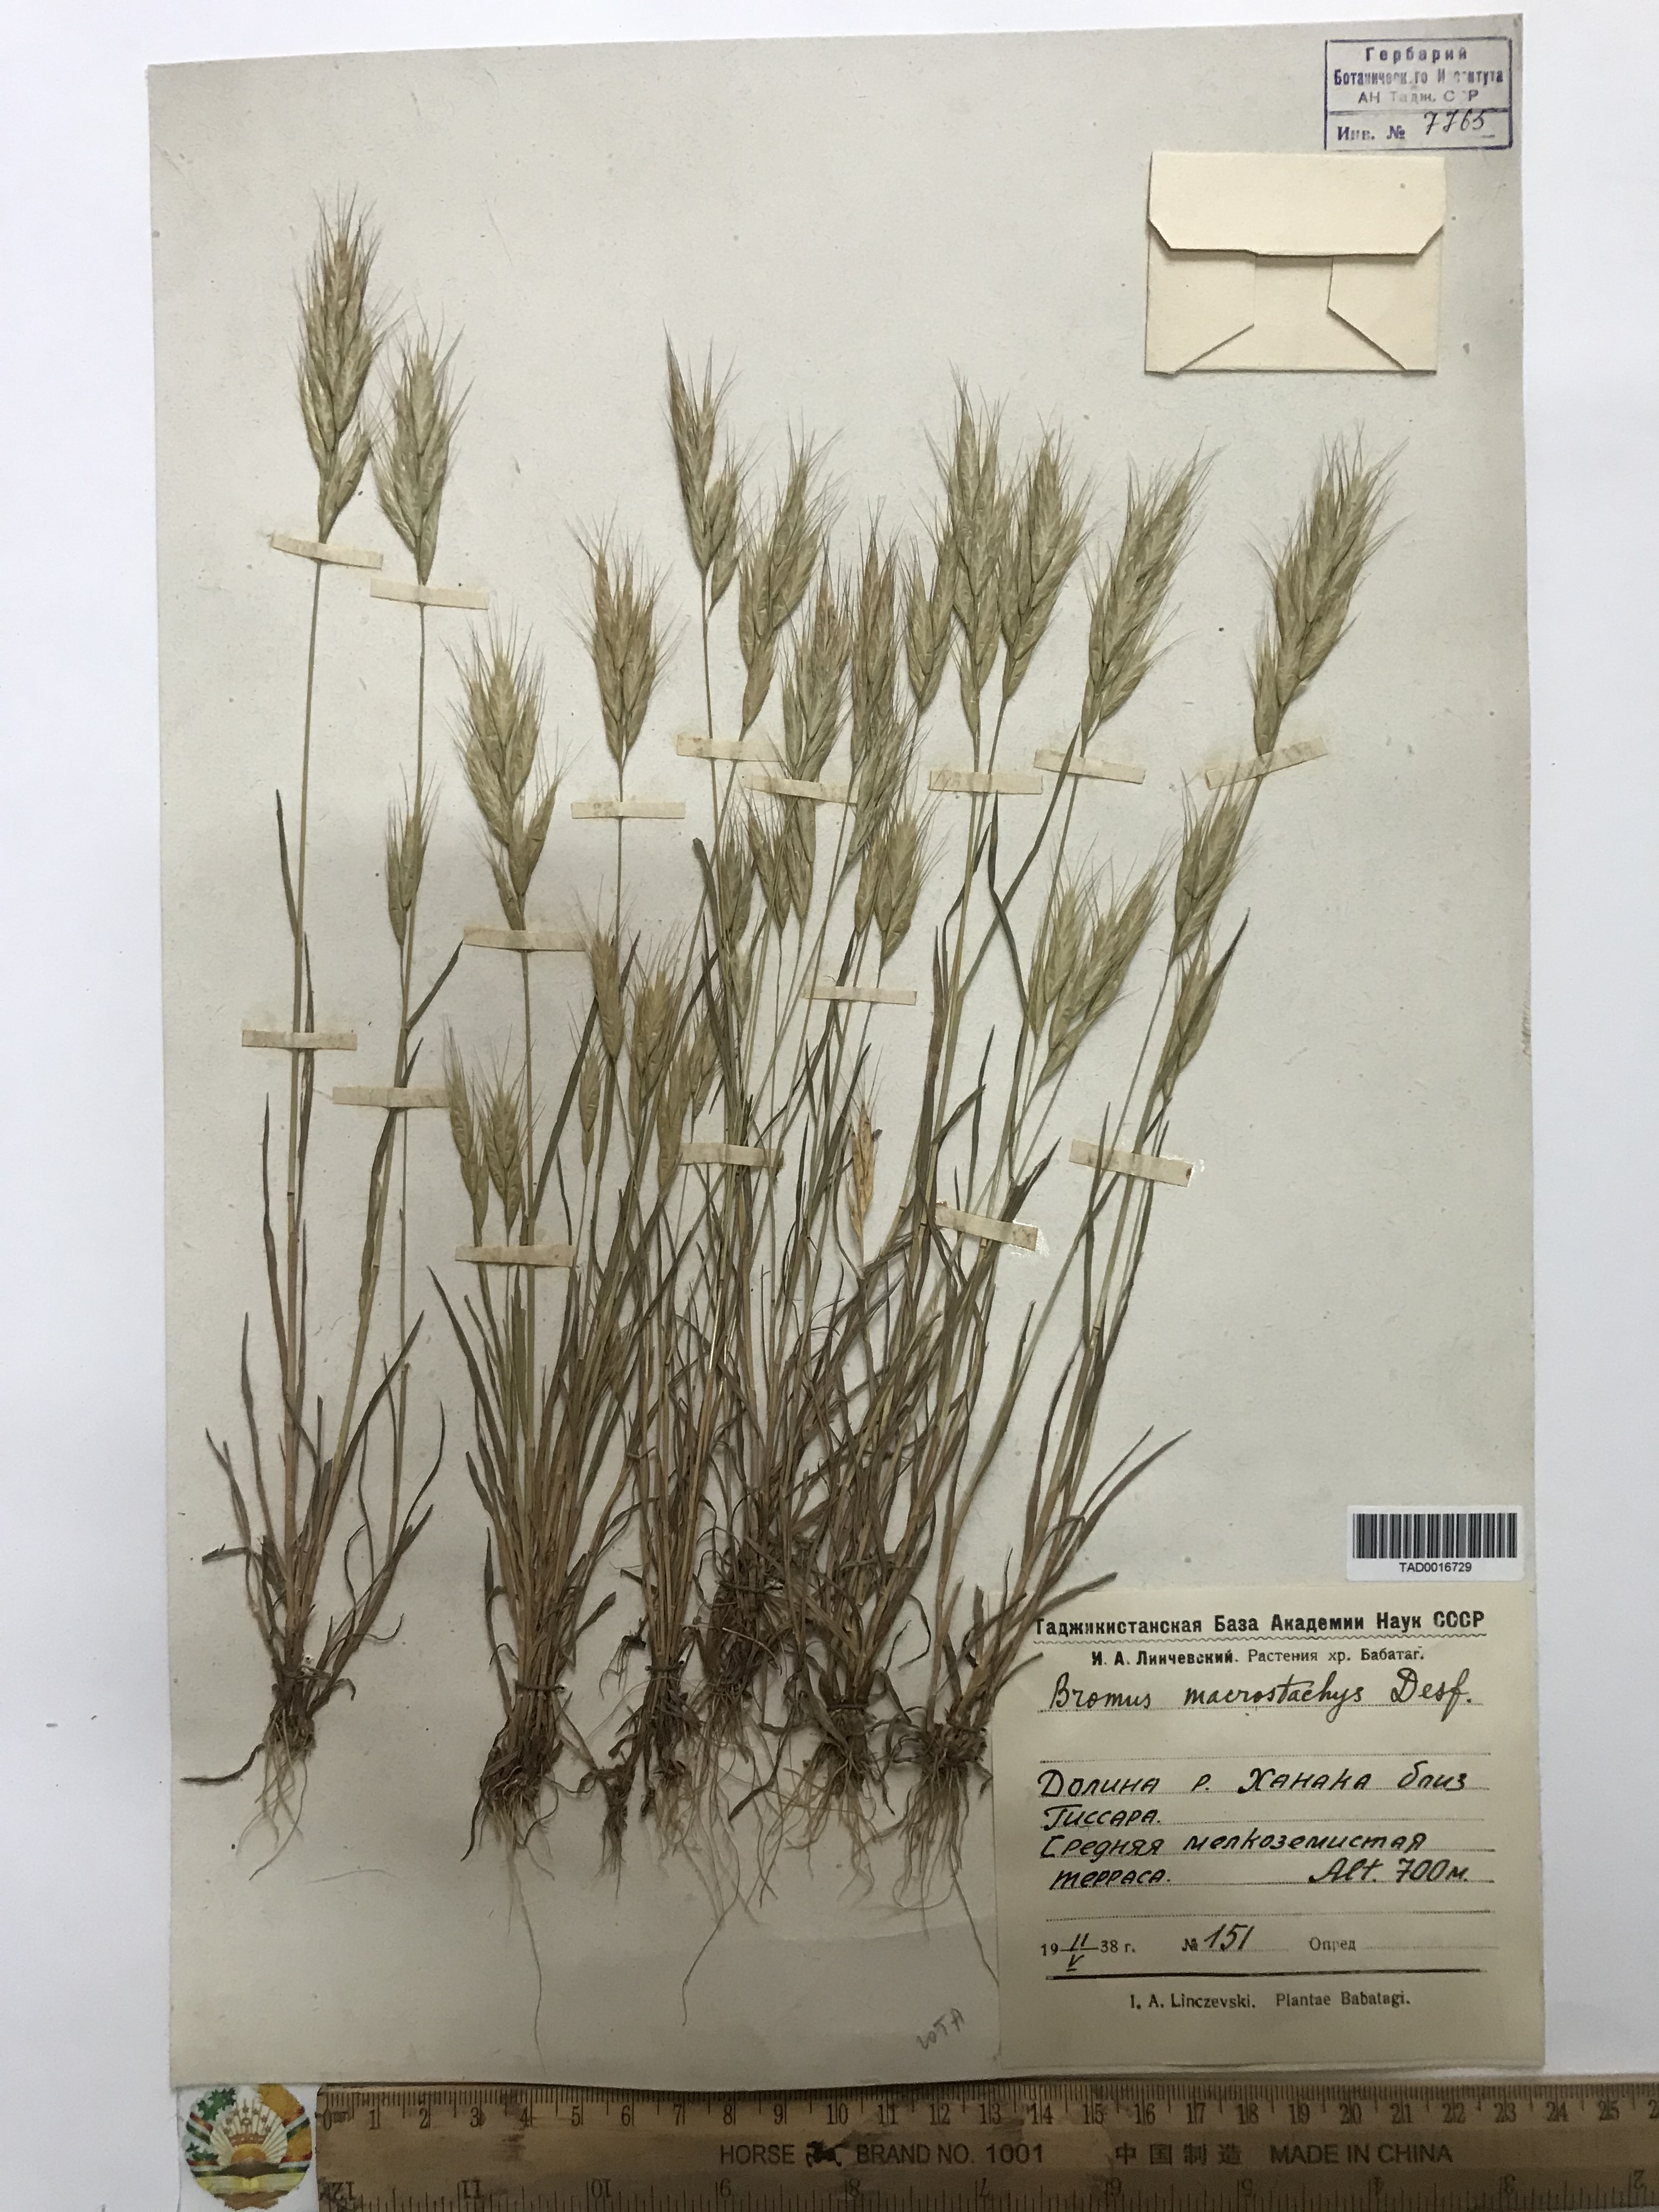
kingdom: Plantae
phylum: Tracheophyta
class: Liliopsida
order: Poales
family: Poaceae
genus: Bromus
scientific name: Bromus lanceolatus
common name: Mediterranean brome
